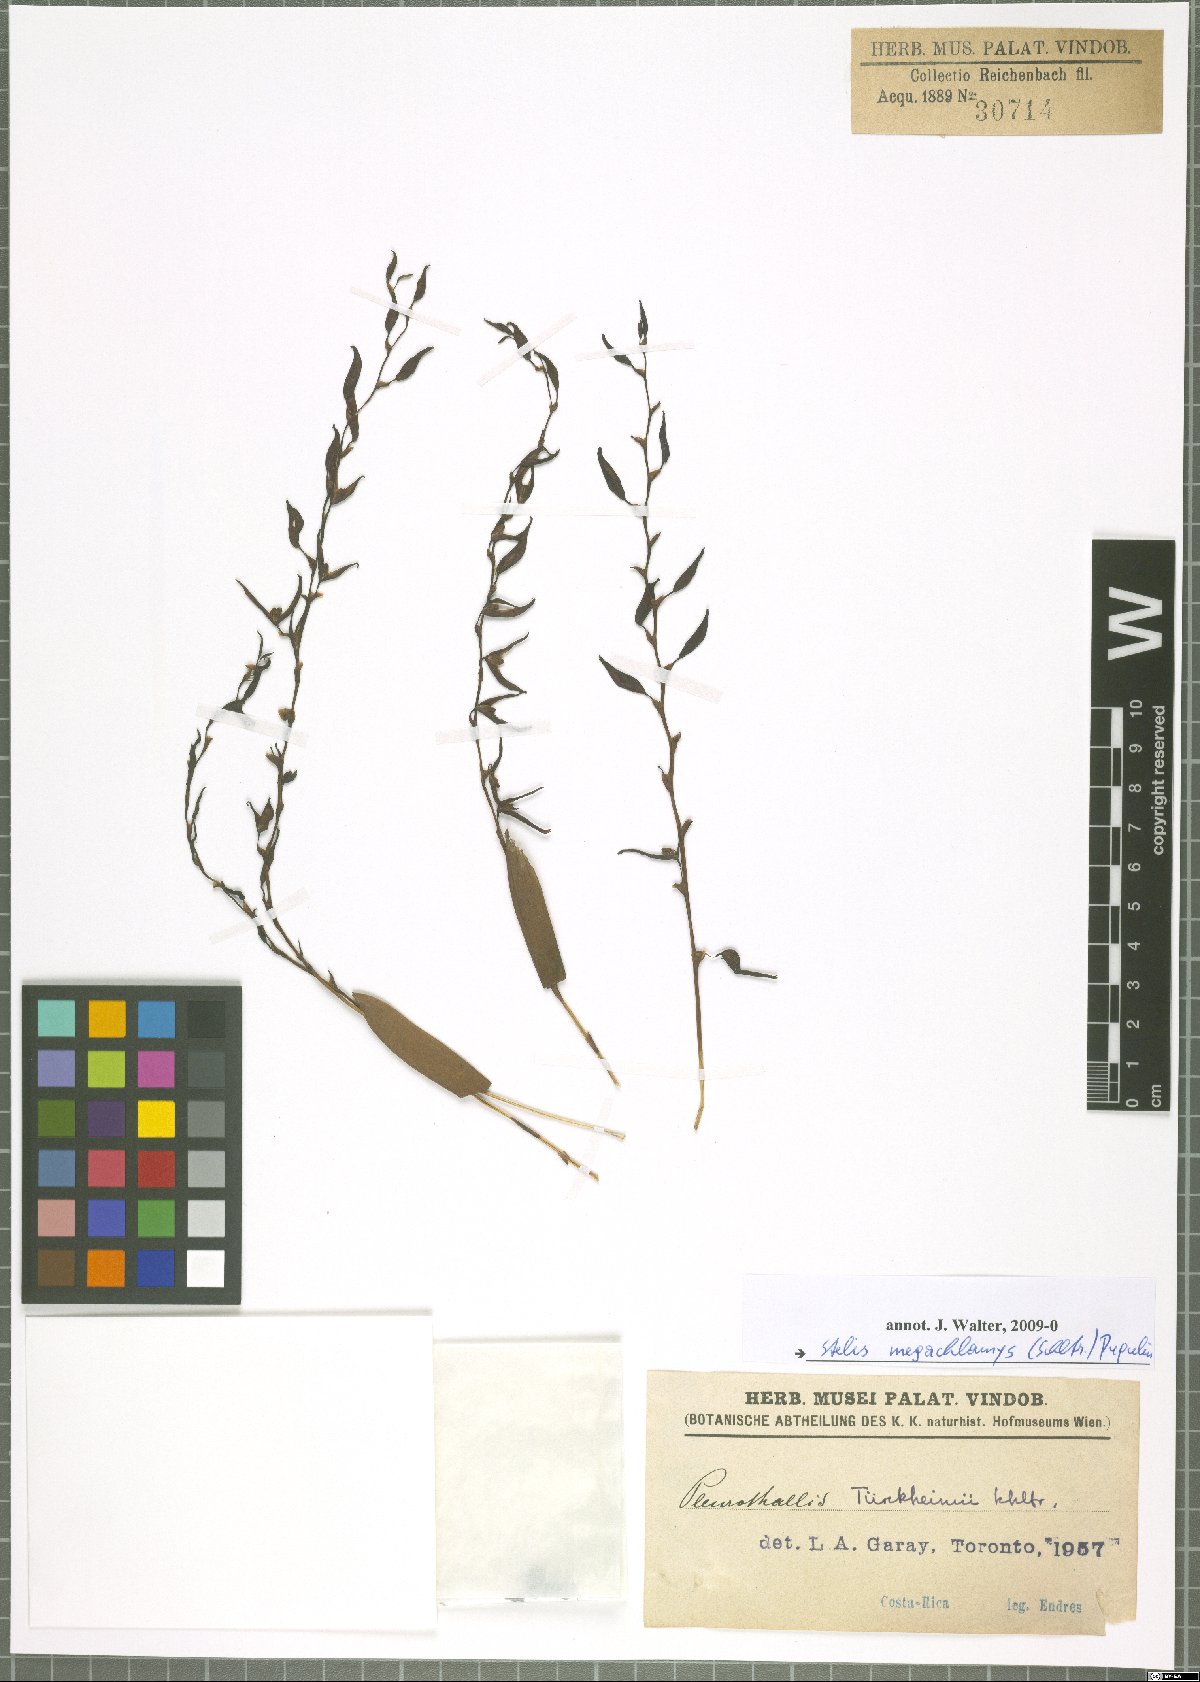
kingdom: Plantae
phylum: Tracheophyta
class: Liliopsida
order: Asparagales
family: Orchidaceae
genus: Stelis
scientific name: Stelis megachlamys
